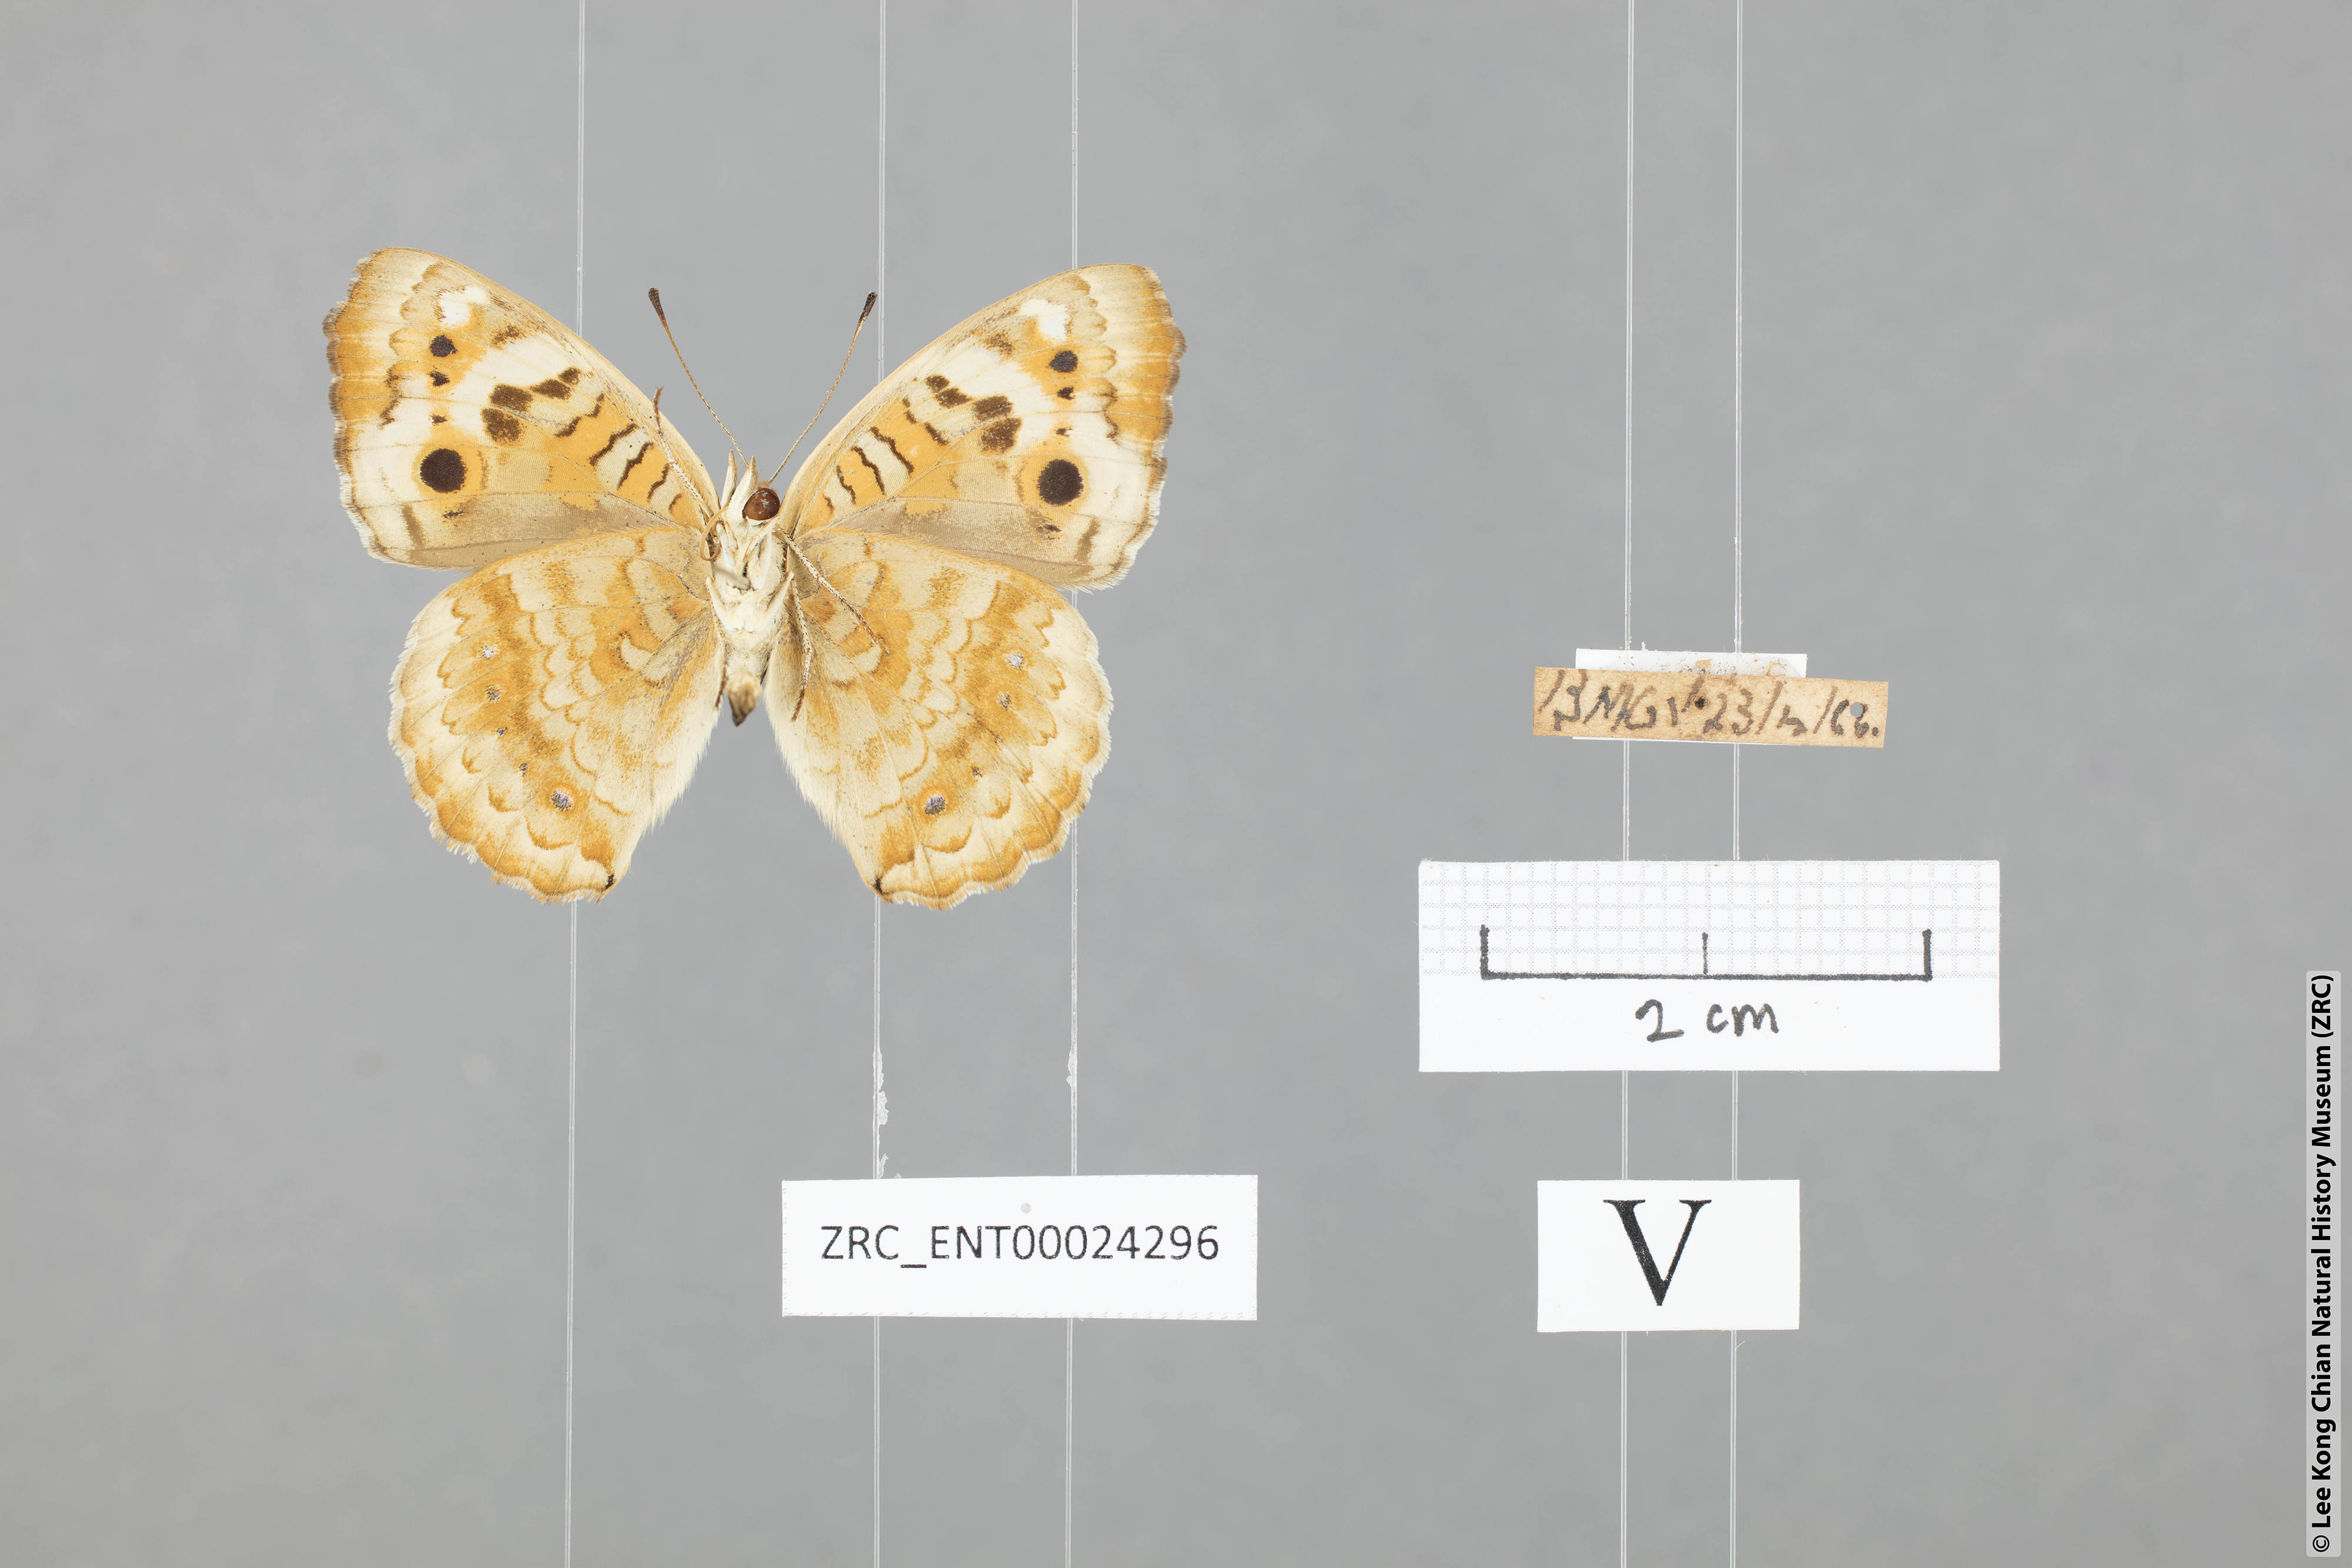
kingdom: Animalia
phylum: Arthropoda
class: Insecta
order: Lepidoptera
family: Nymphalidae
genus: Junonia
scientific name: Junonia orithya
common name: Blue pansy
